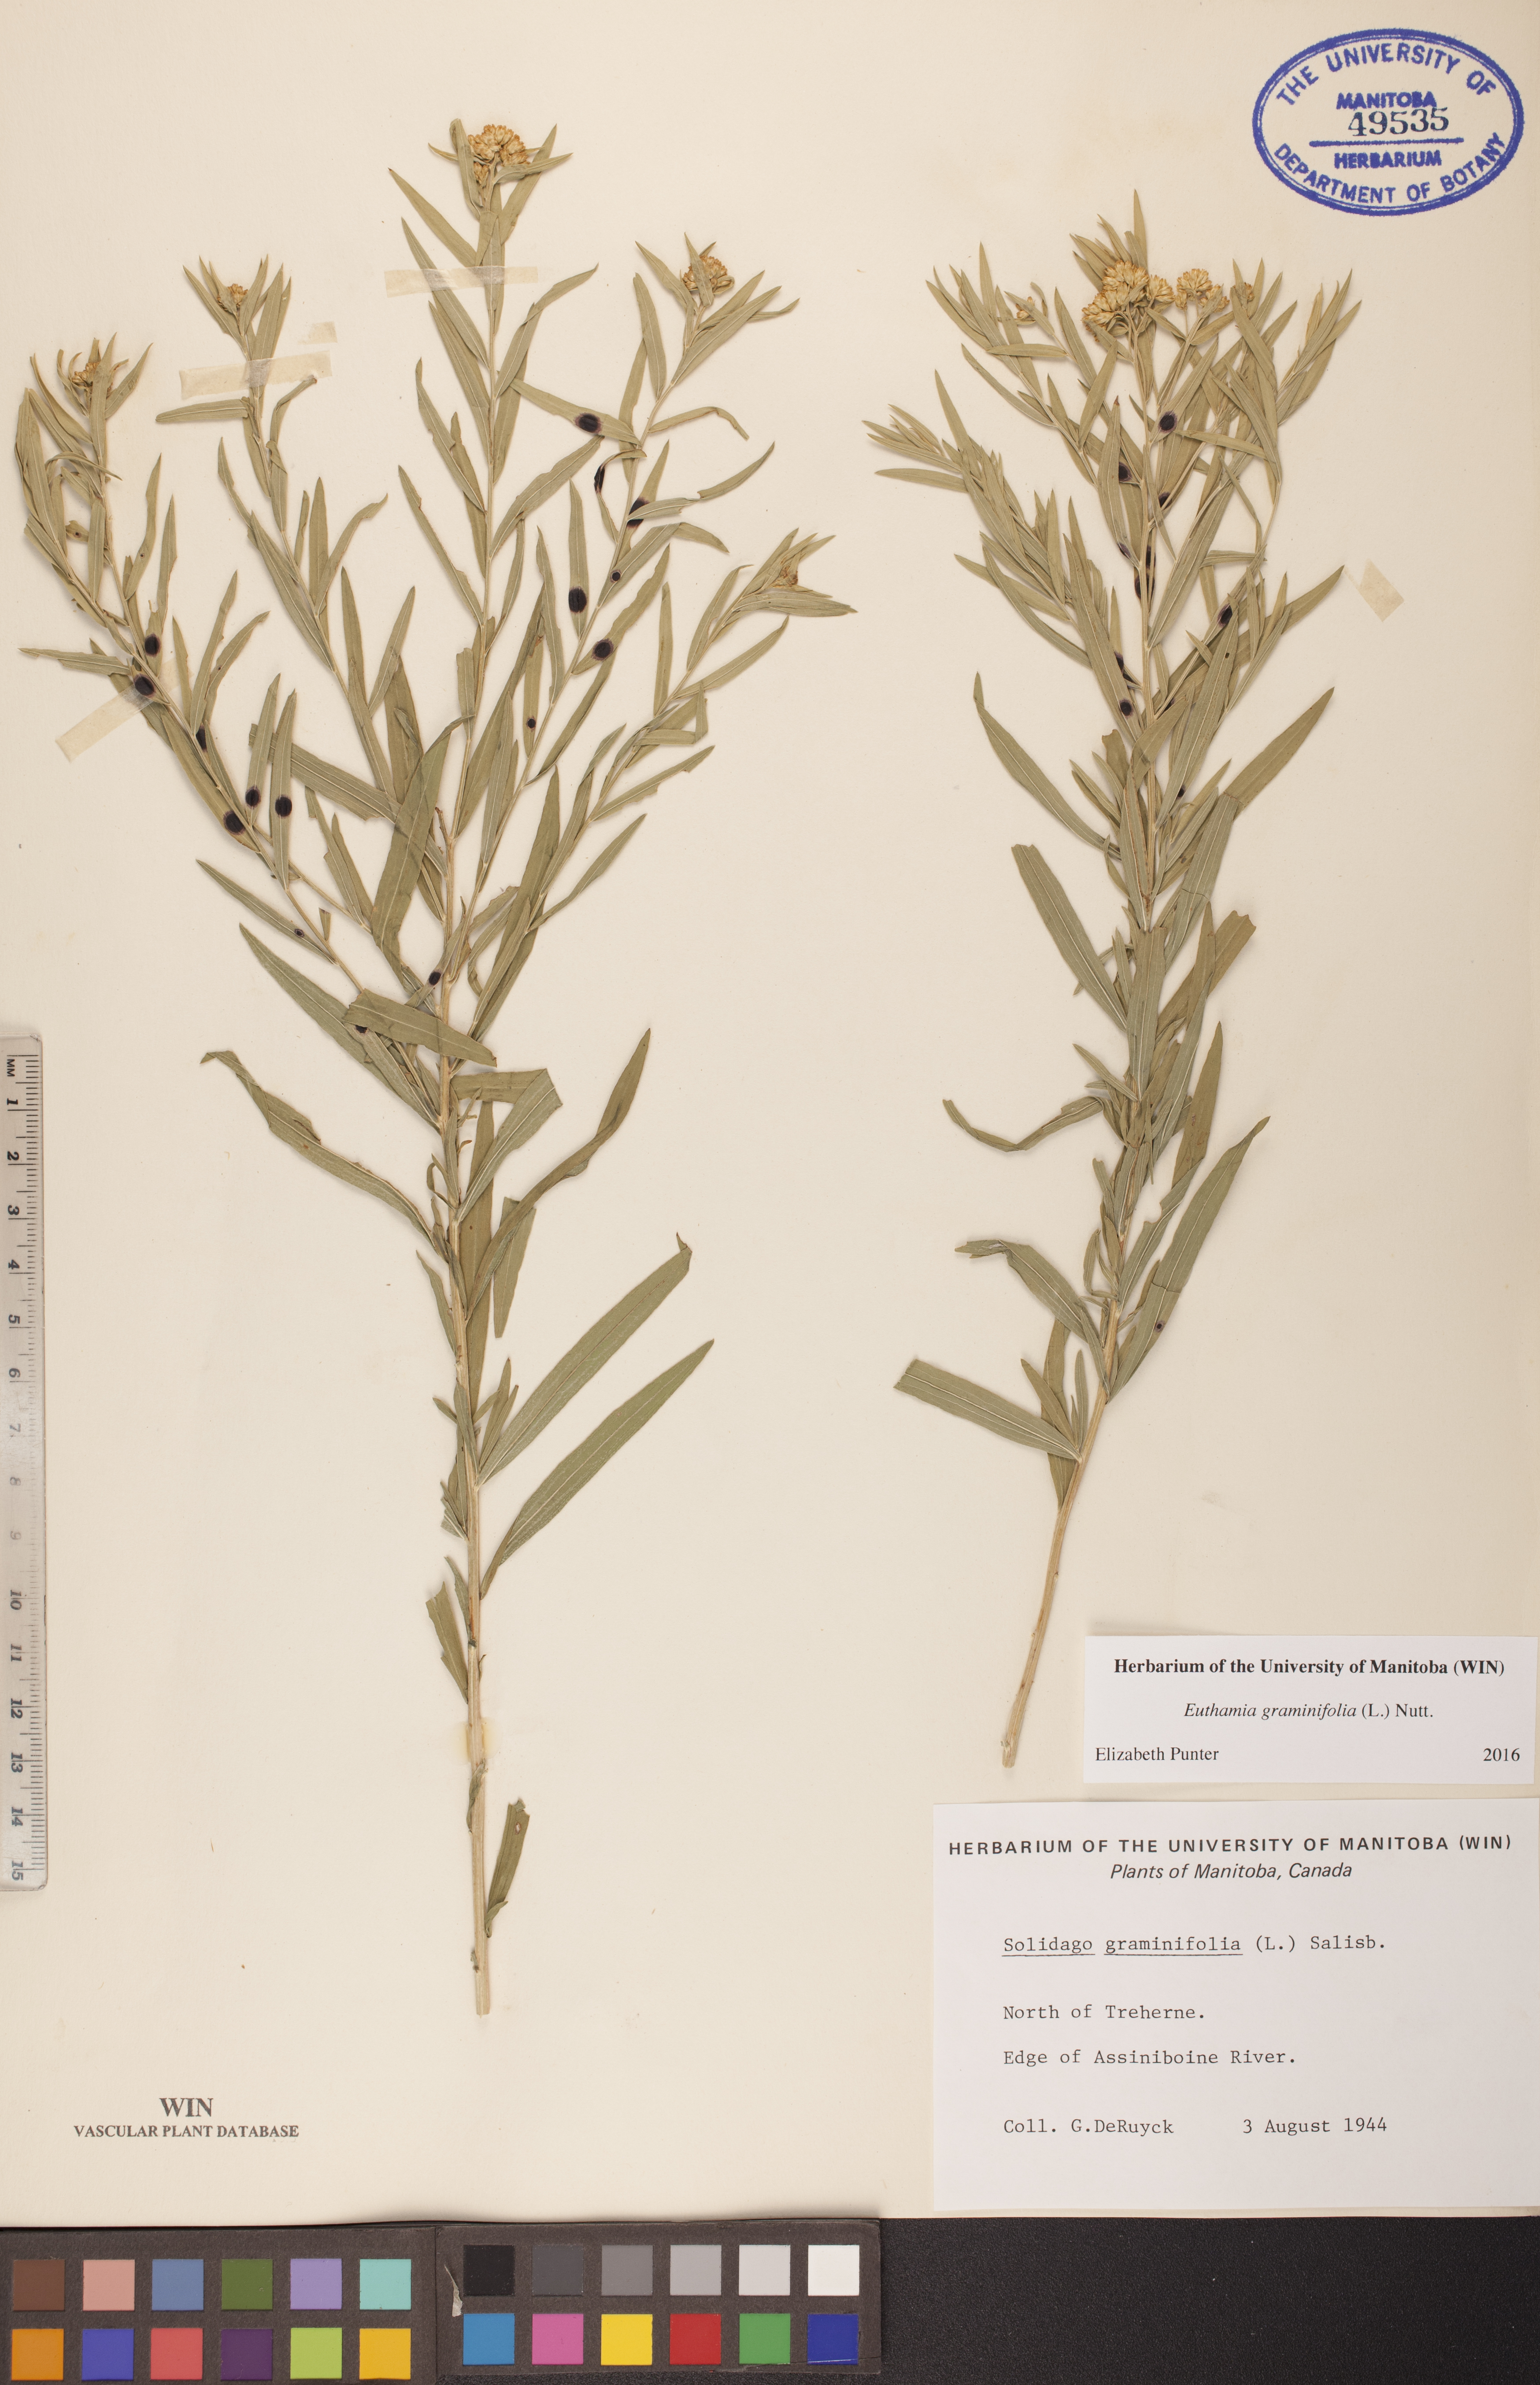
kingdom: Plantae
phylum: Tracheophyta
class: Magnoliopsida
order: Asterales
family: Asteraceae
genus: Euthamia
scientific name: Euthamia graminifolia
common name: Common goldentop
